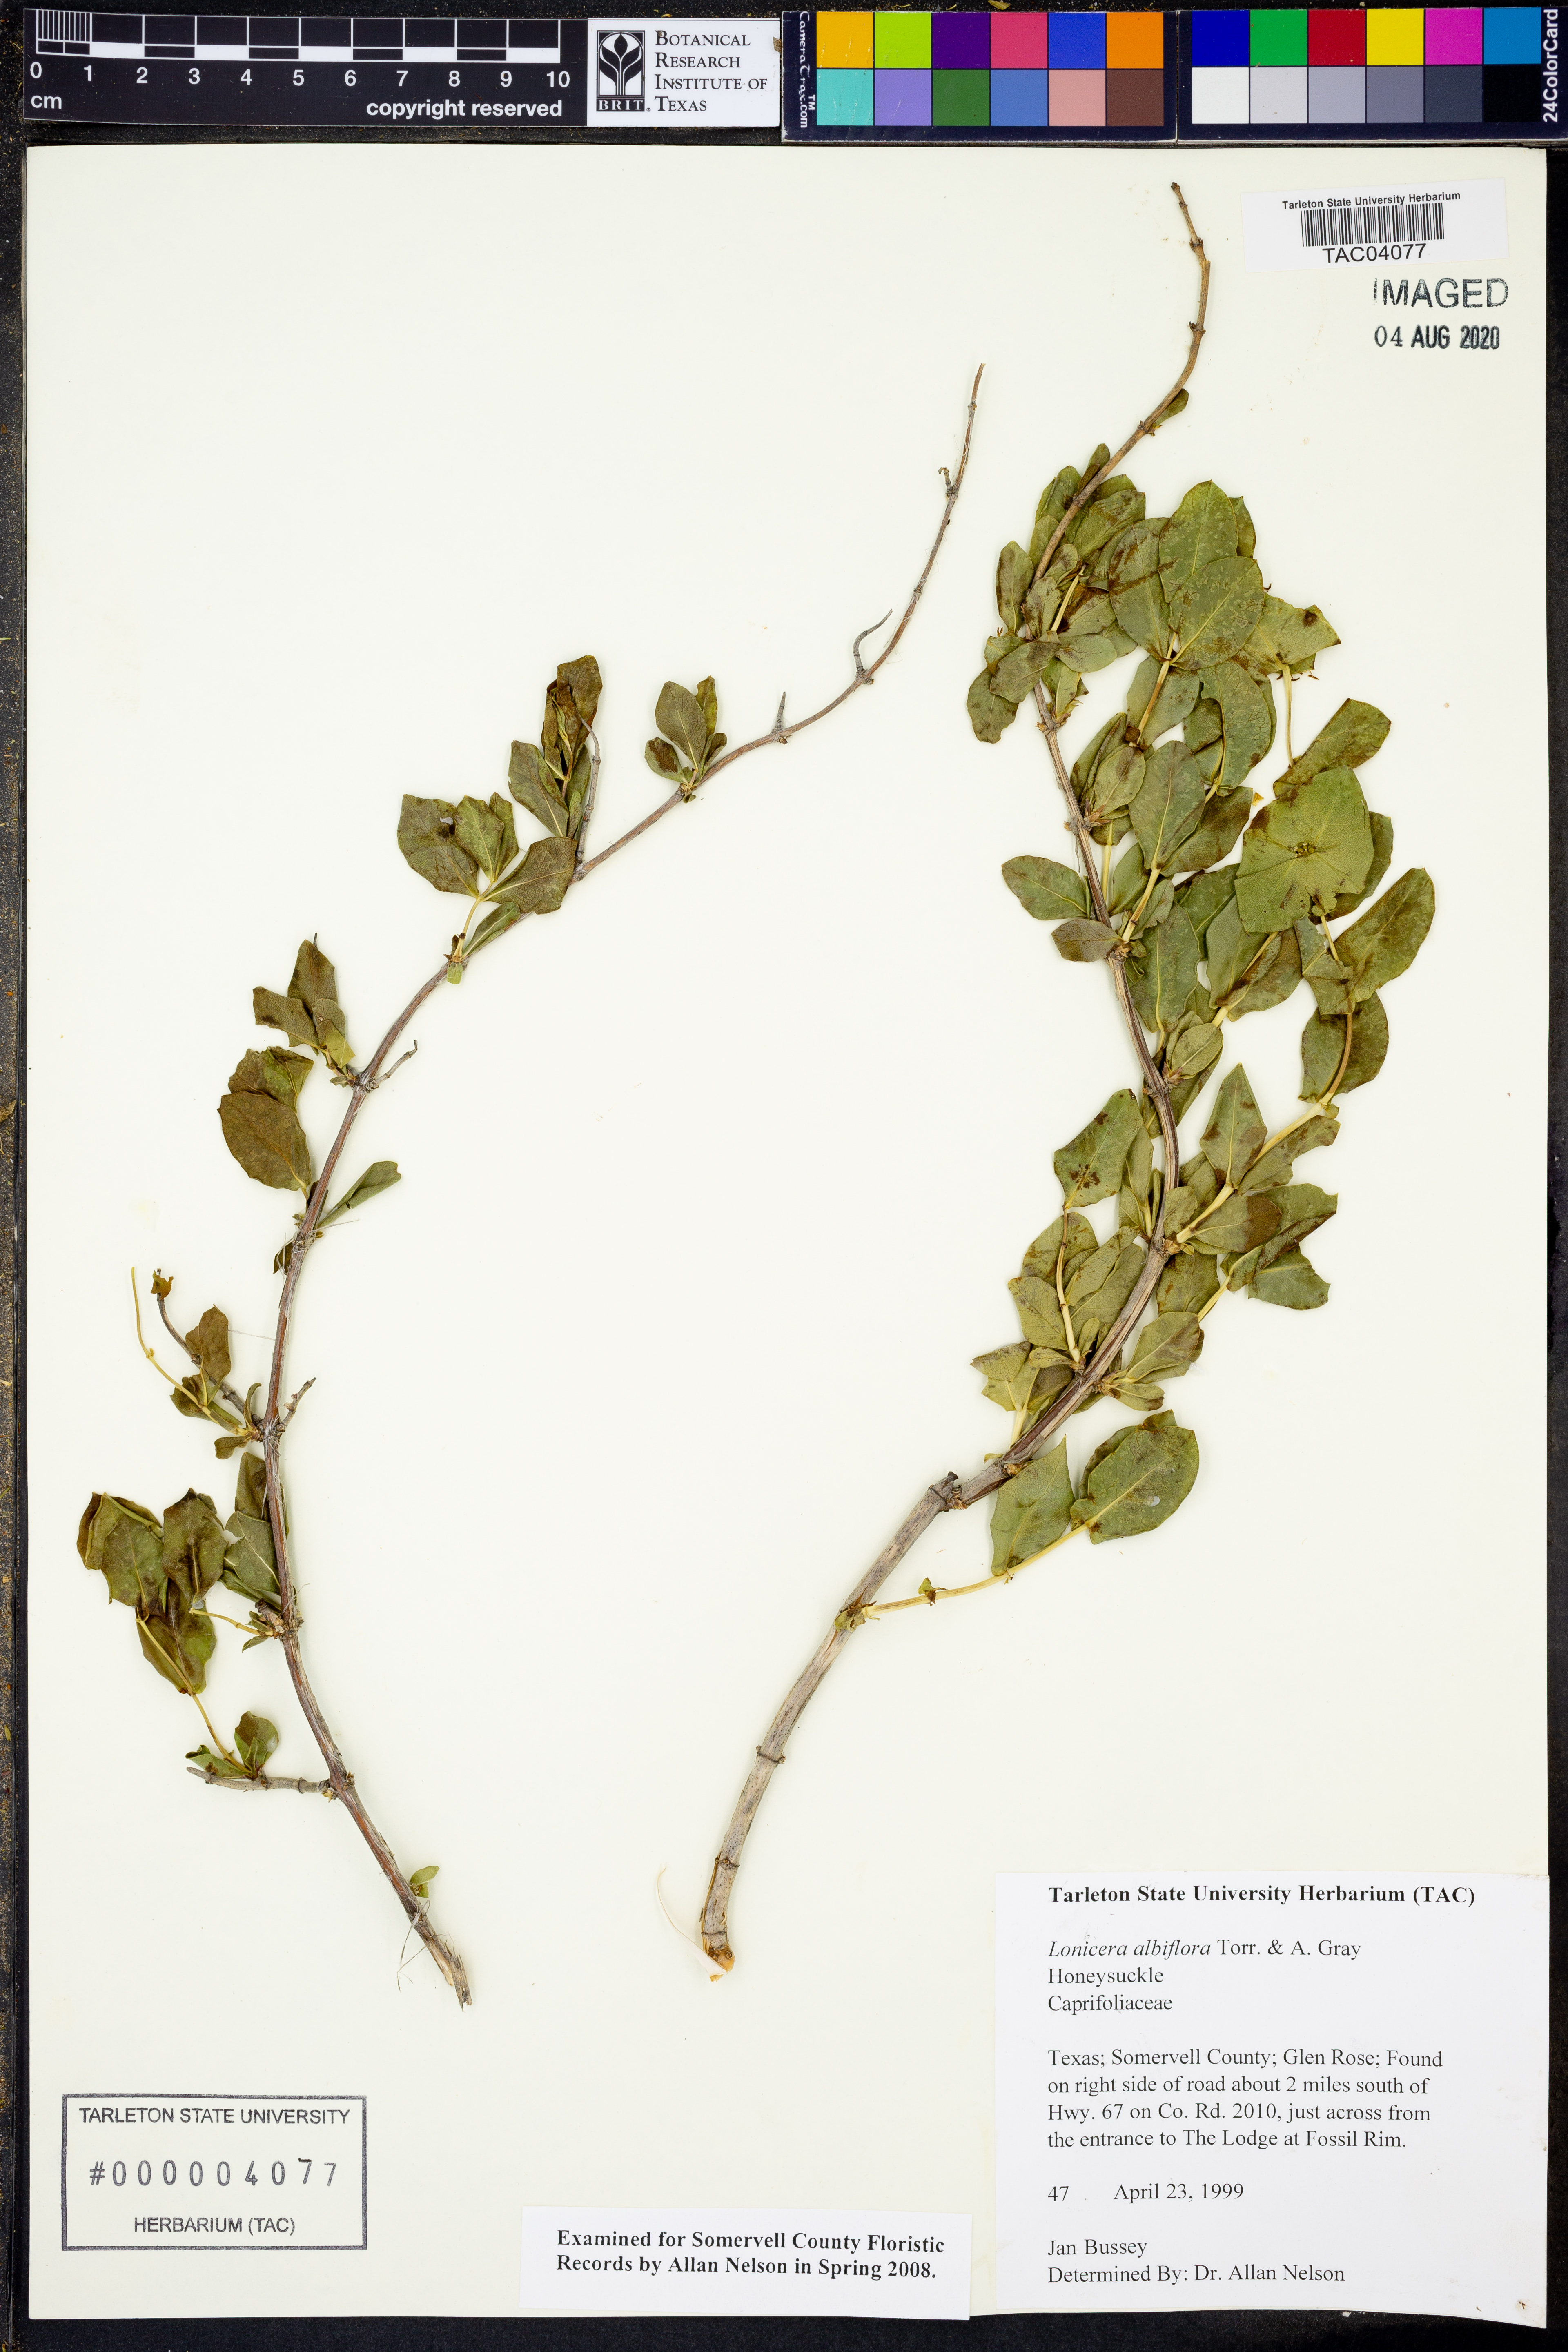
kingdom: Plantae
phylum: Tracheophyta
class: Magnoliopsida
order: Dipsacales
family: Caprifoliaceae
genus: Lonicera
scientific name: Lonicera albiflora
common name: White honeysuckle
